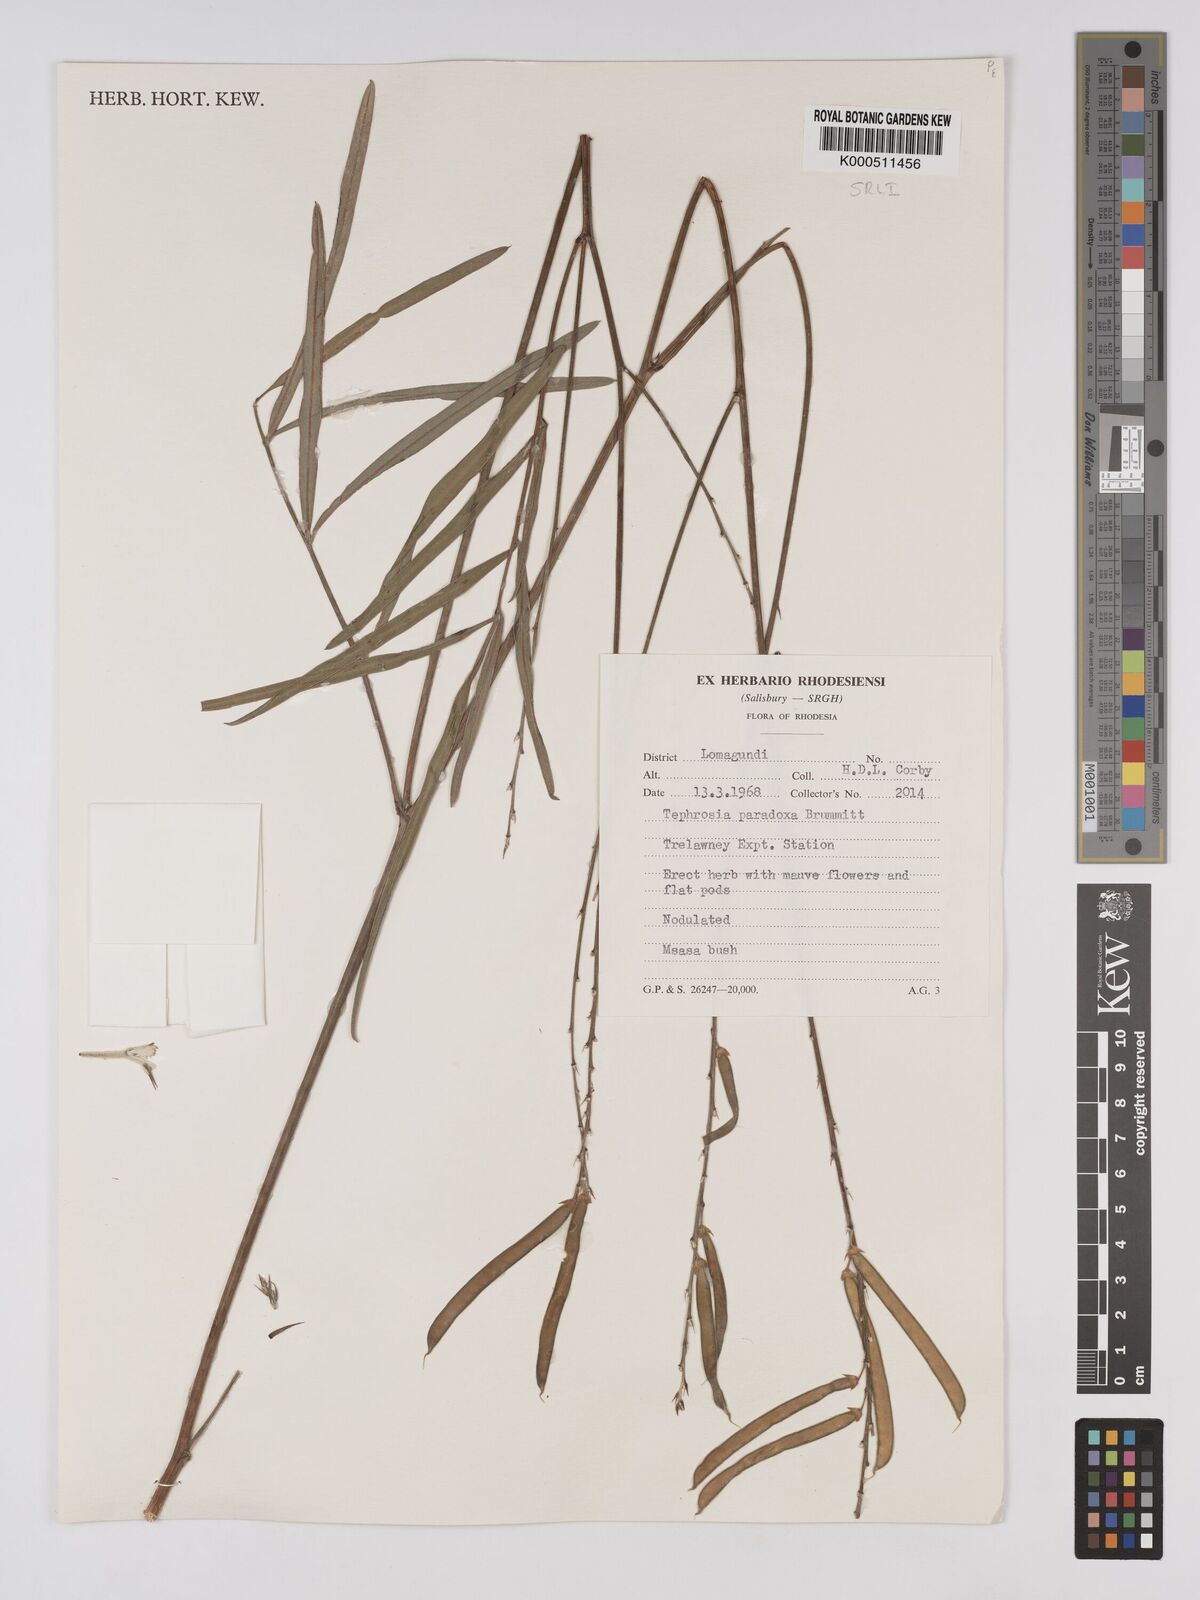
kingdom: Plantae
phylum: Tracheophyta
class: Magnoliopsida
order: Fabales
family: Fabaceae
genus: Tephrosia
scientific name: Tephrosia paradoxa
